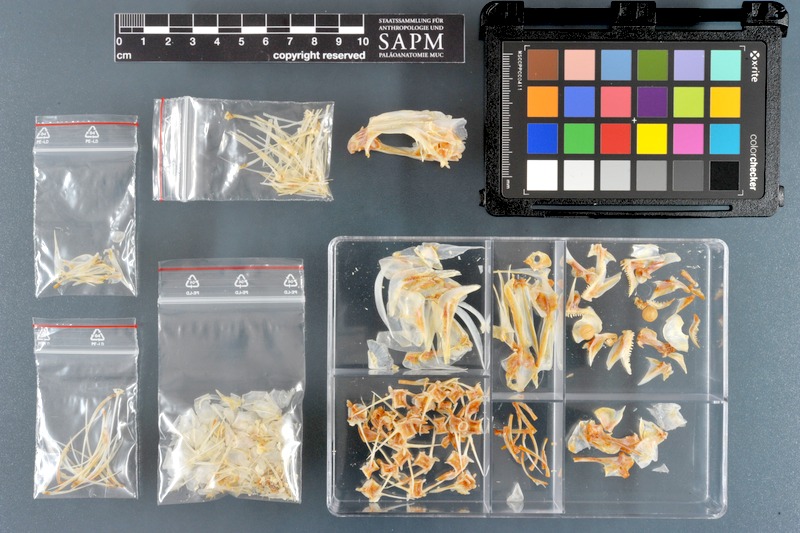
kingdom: Animalia
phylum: Chordata
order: Perciformes
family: Nemipteridae
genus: Nemipterus
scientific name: Nemipterus peronii
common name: Peron's threadfin bream
